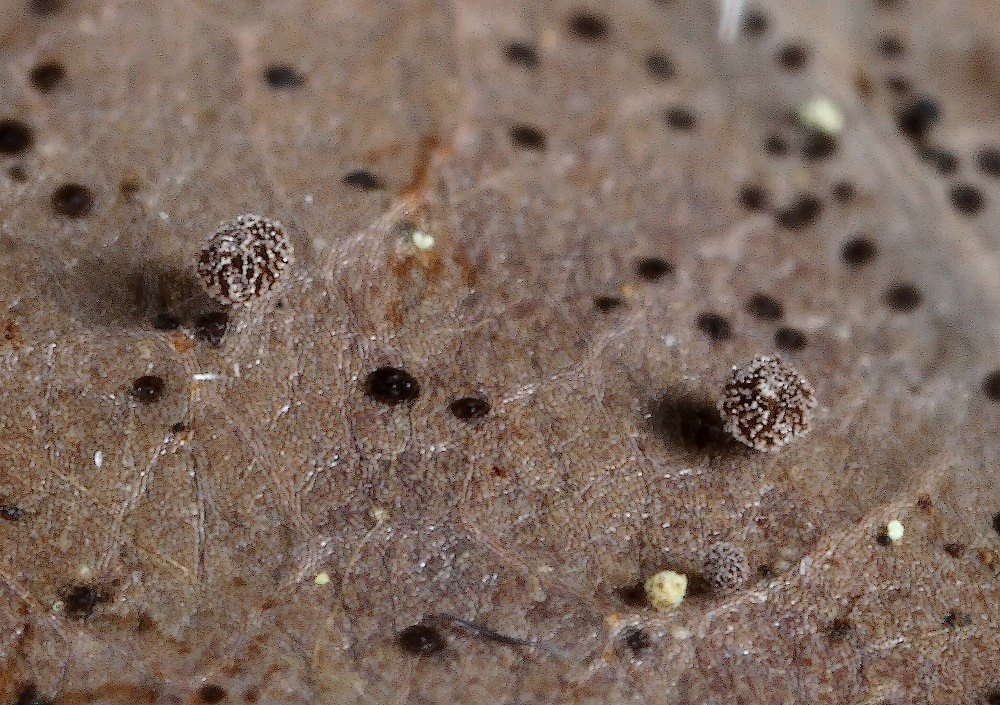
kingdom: Fungi
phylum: Ascomycota
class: Leotiomycetes
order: Helotiales
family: Lachnaceae
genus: Brunnipila
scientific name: Brunnipila brunneola
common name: læderbrun frynseskive
